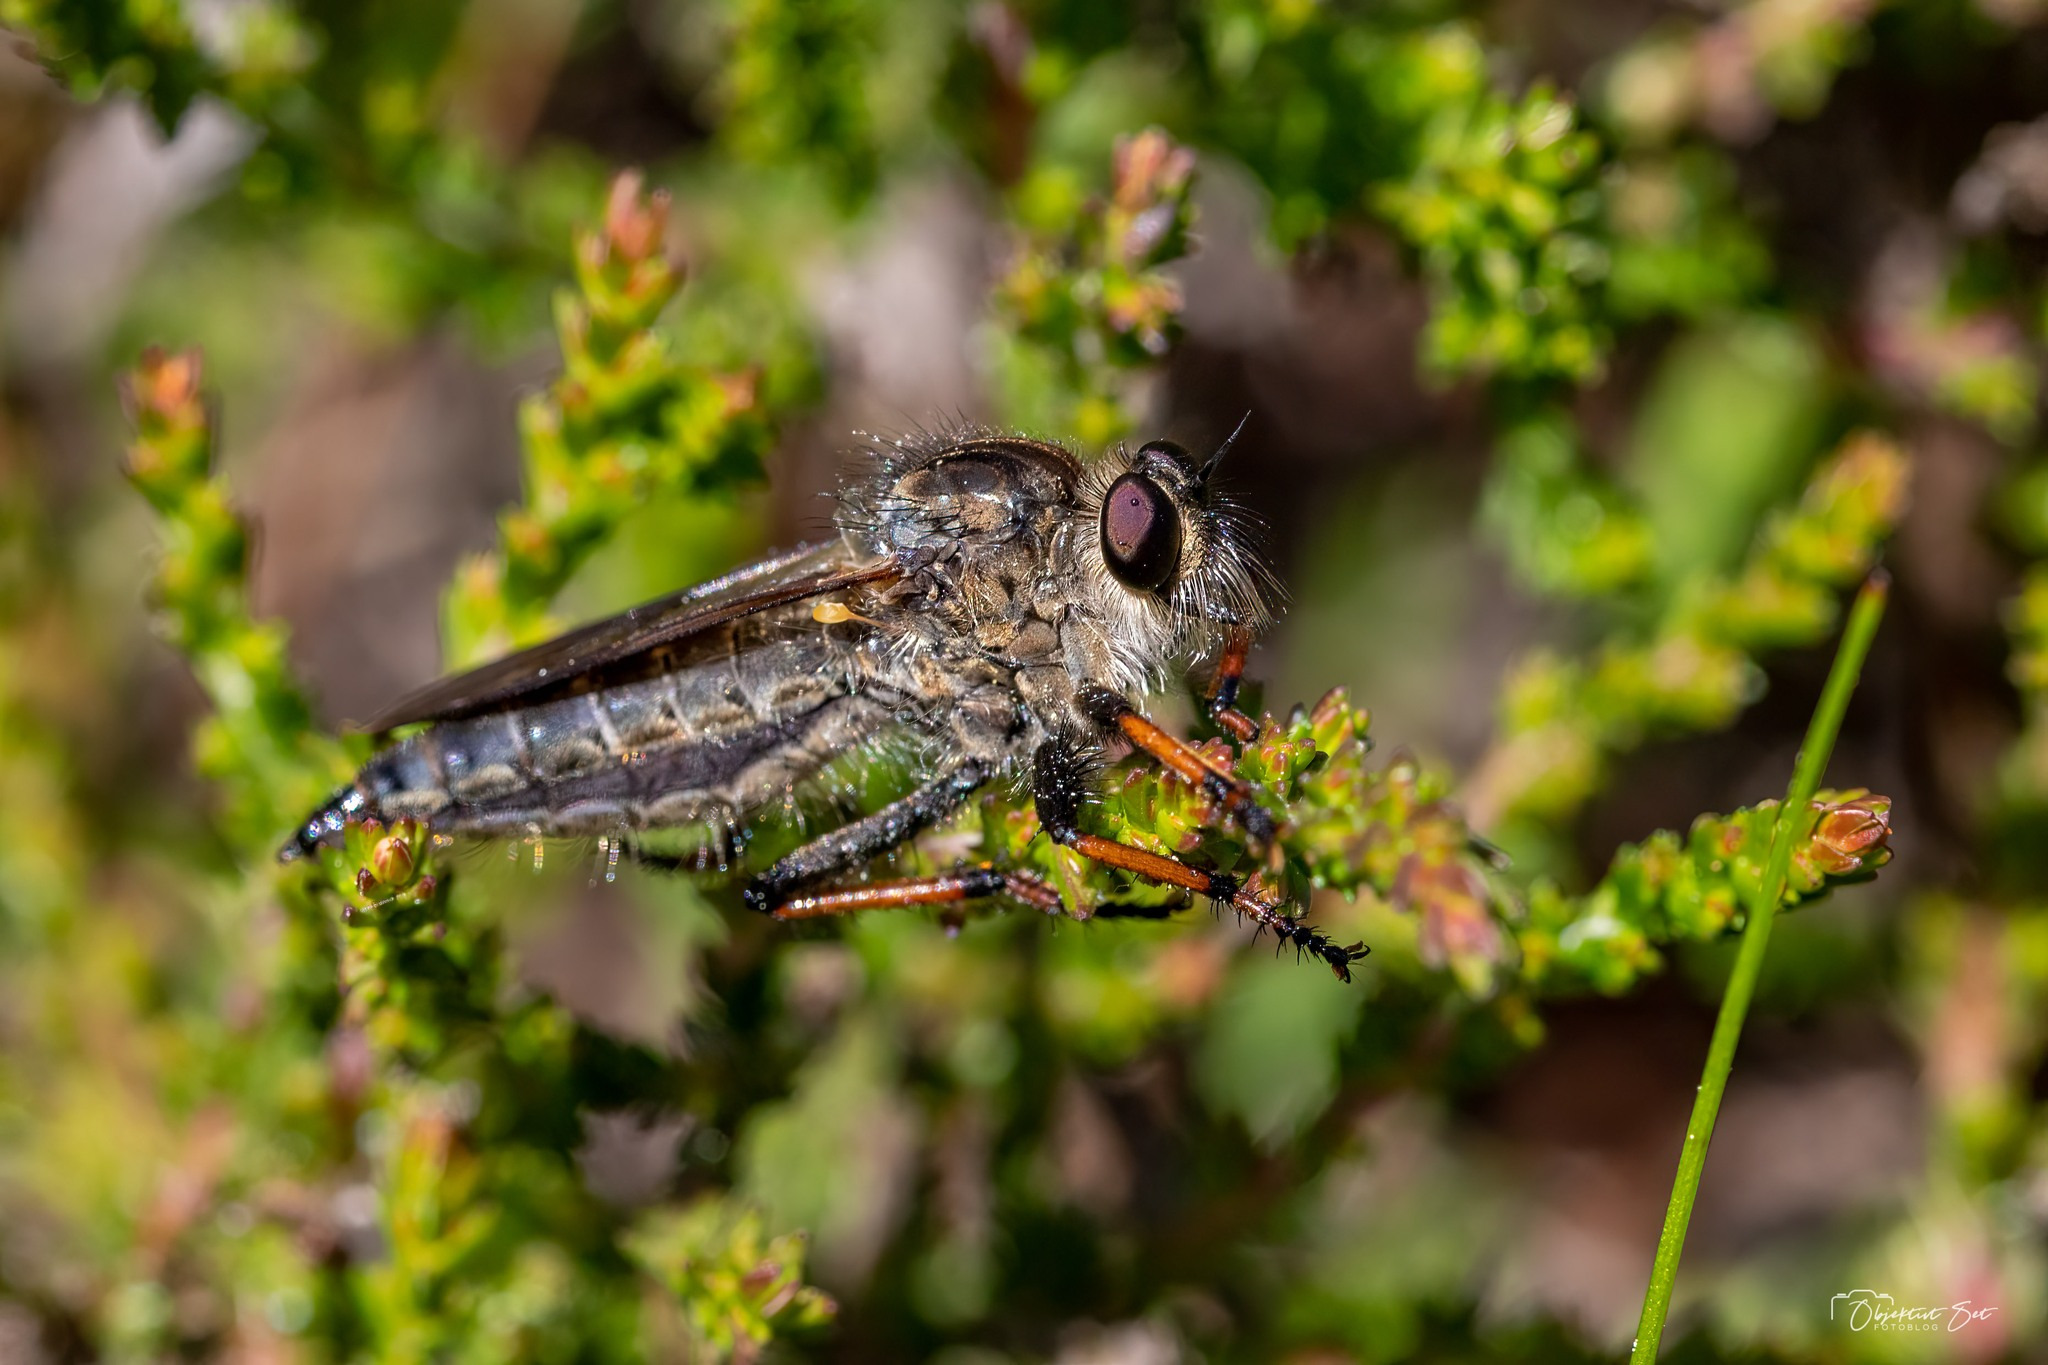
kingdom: Animalia
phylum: Arthropoda
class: Insecta
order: Diptera
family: Asilidae
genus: Pamponerus
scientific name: Pamponerus germanicus
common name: Tysk rovflue
